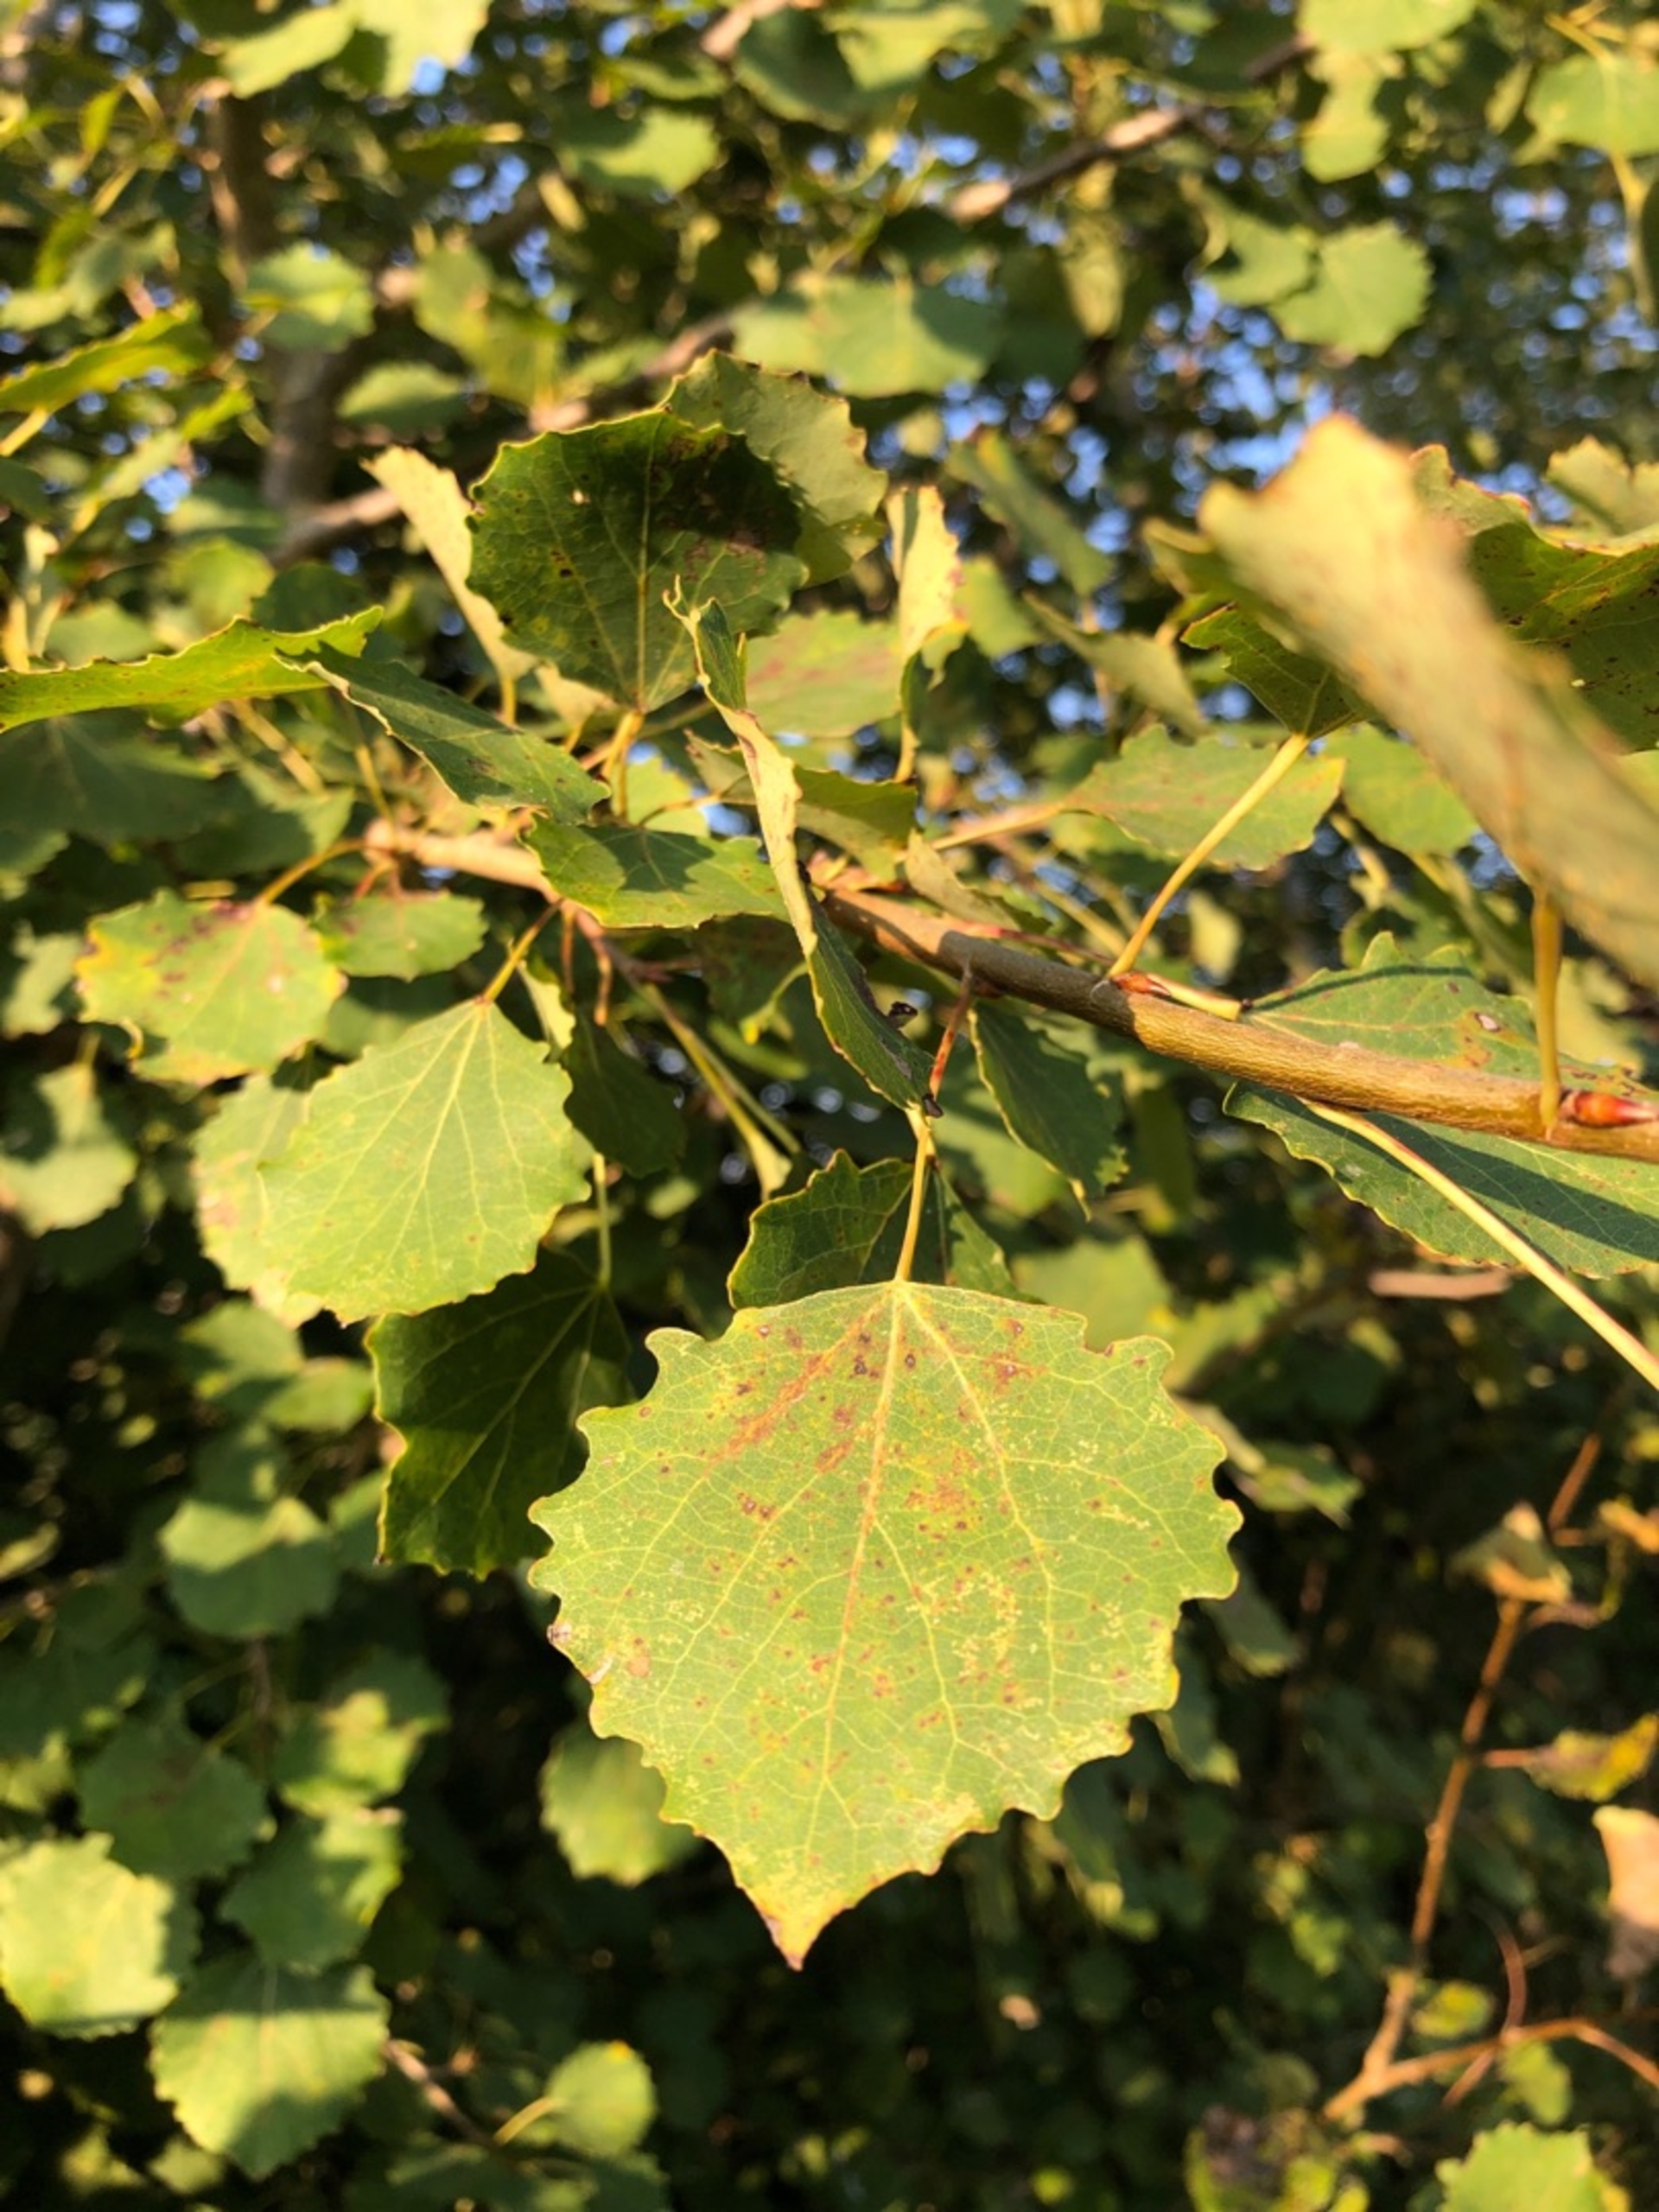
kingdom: Plantae
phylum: Tracheophyta
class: Magnoliopsida
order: Malpighiales
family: Salicaceae
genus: Populus
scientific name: Populus tremula
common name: Bævreasp
